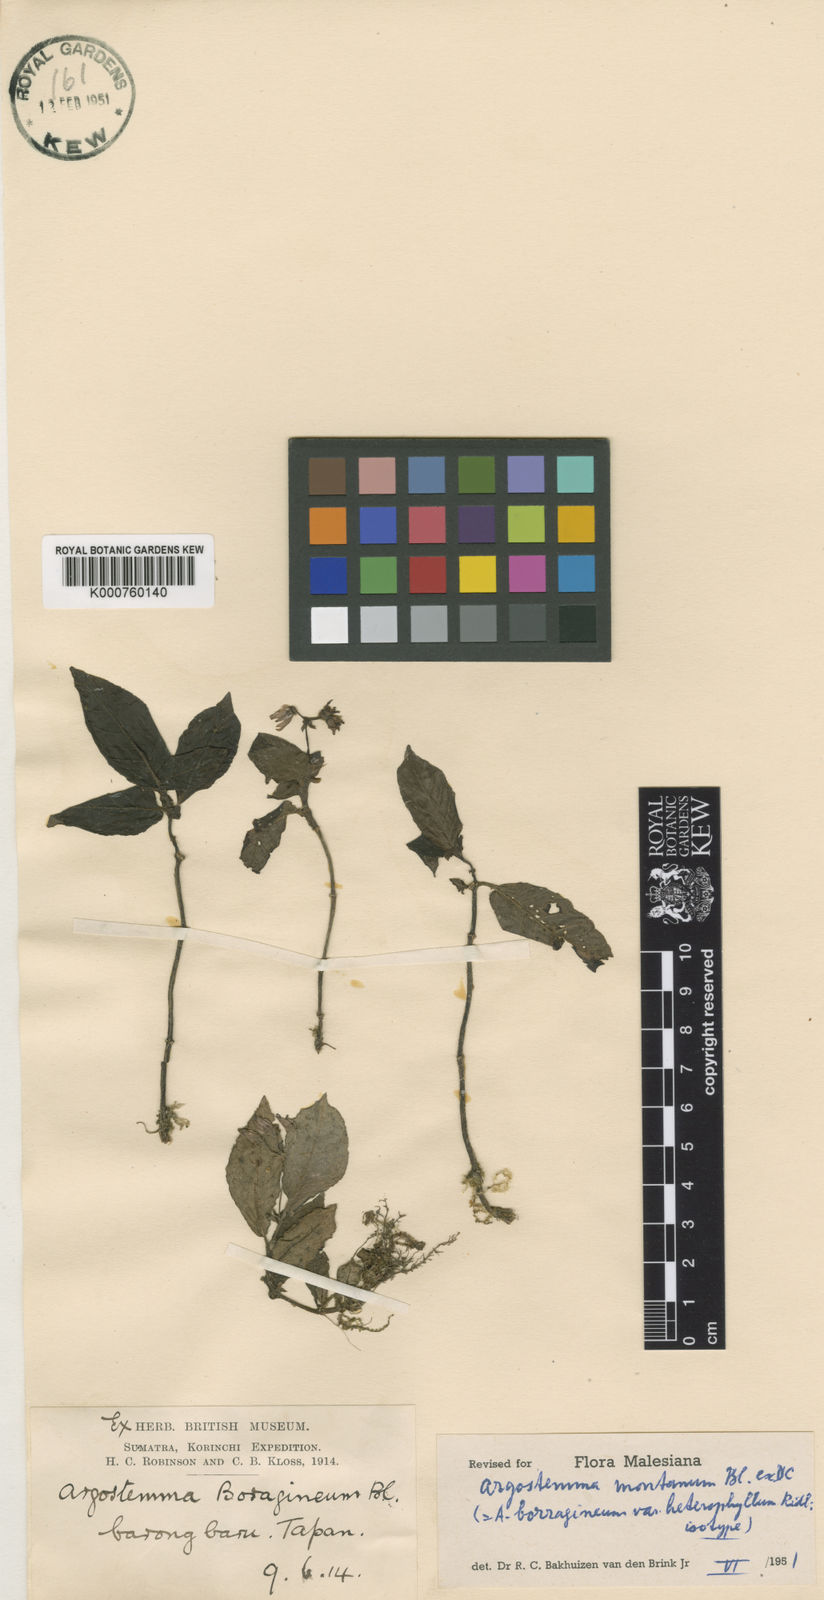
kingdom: Plantae
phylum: Tracheophyta
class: Magnoliopsida
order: Gentianales
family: Rubiaceae
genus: Argostemma
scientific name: Argostemma montanum
